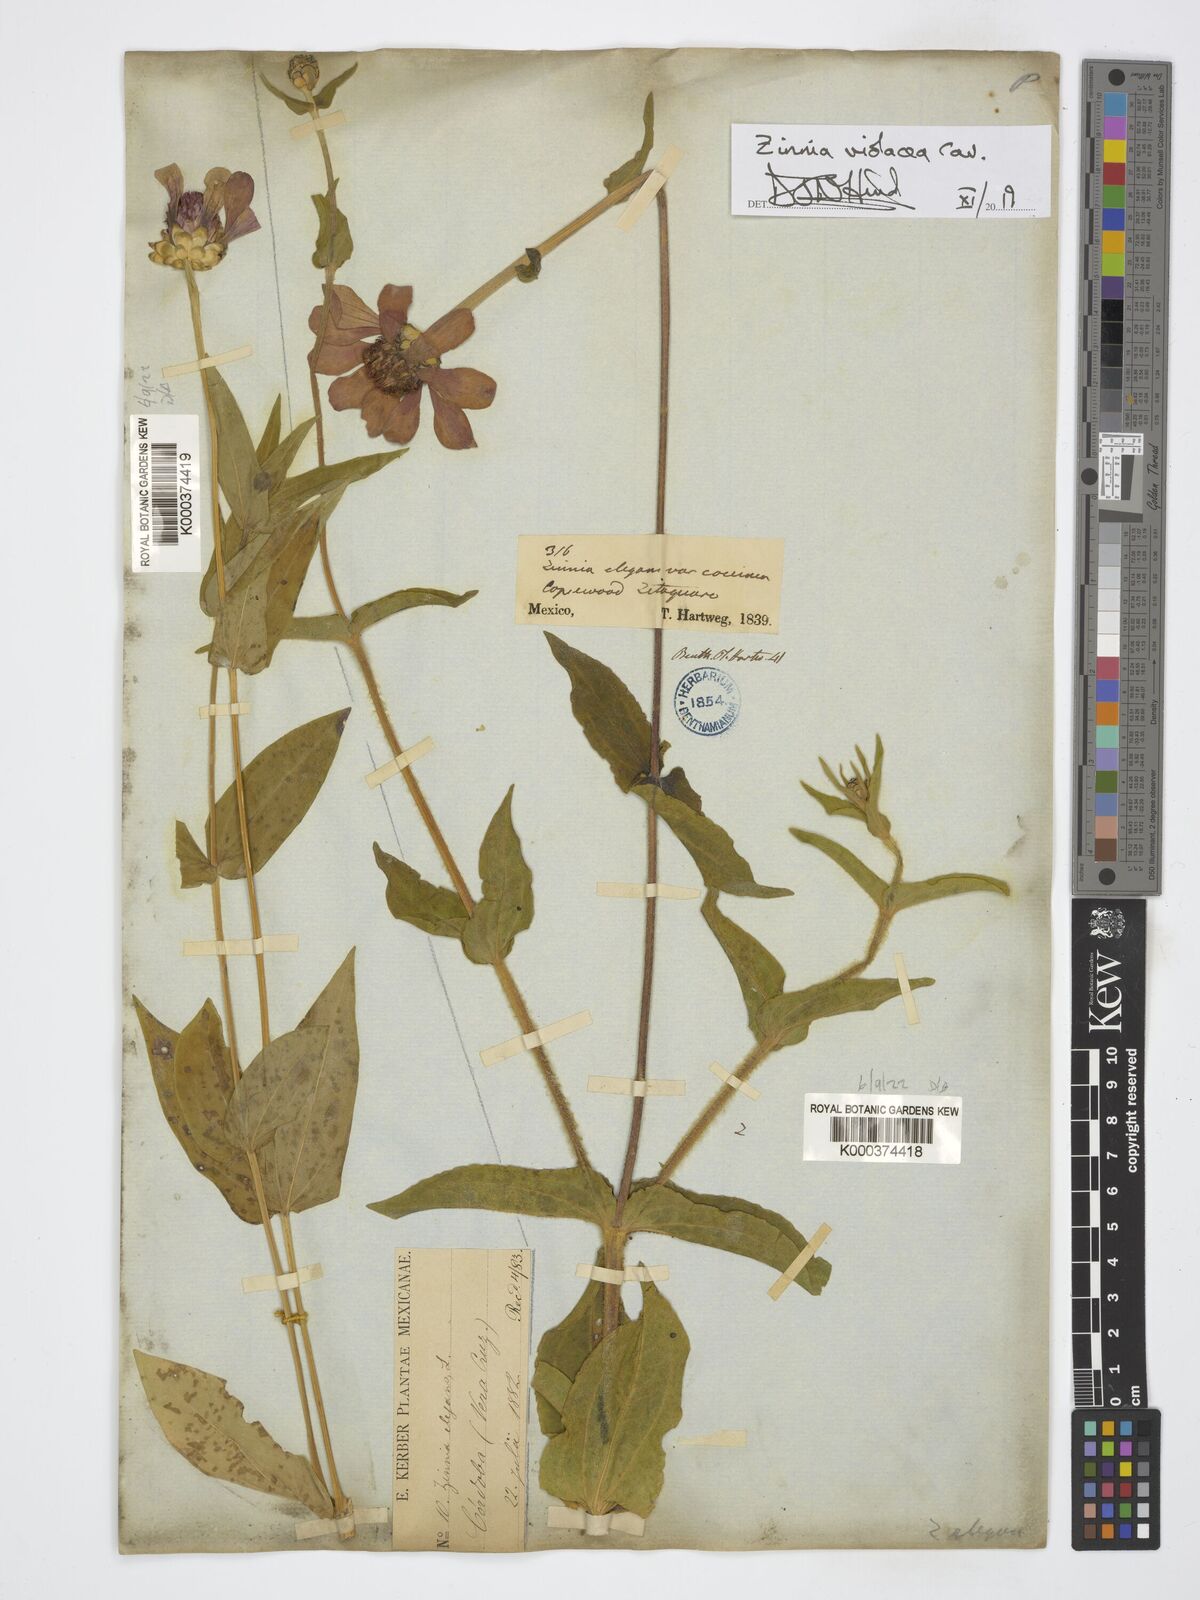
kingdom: Plantae
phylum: Tracheophyta
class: Magnoliopsida
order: Asterales
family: Asteraceae
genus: Zinnia
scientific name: Zinnia elegans
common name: Youth-and-age
